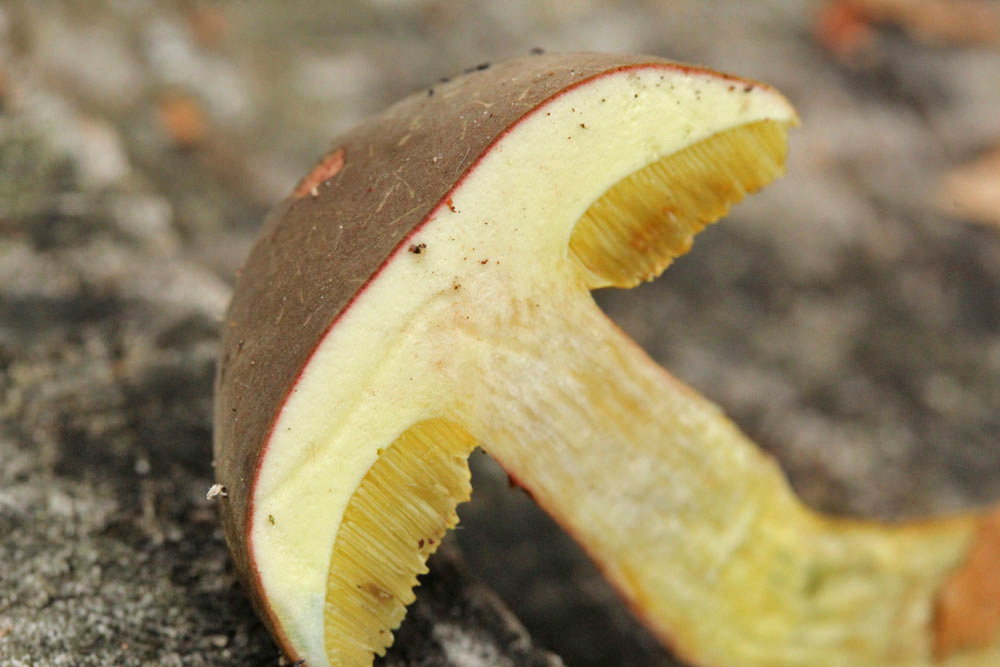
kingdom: Fungi
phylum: Basidiomycota
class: Agaricomycetes
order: Boletales
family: Boletaceae
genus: Xerocomellus
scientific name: Xerocomellus pruinatus
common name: dugget rørhat
